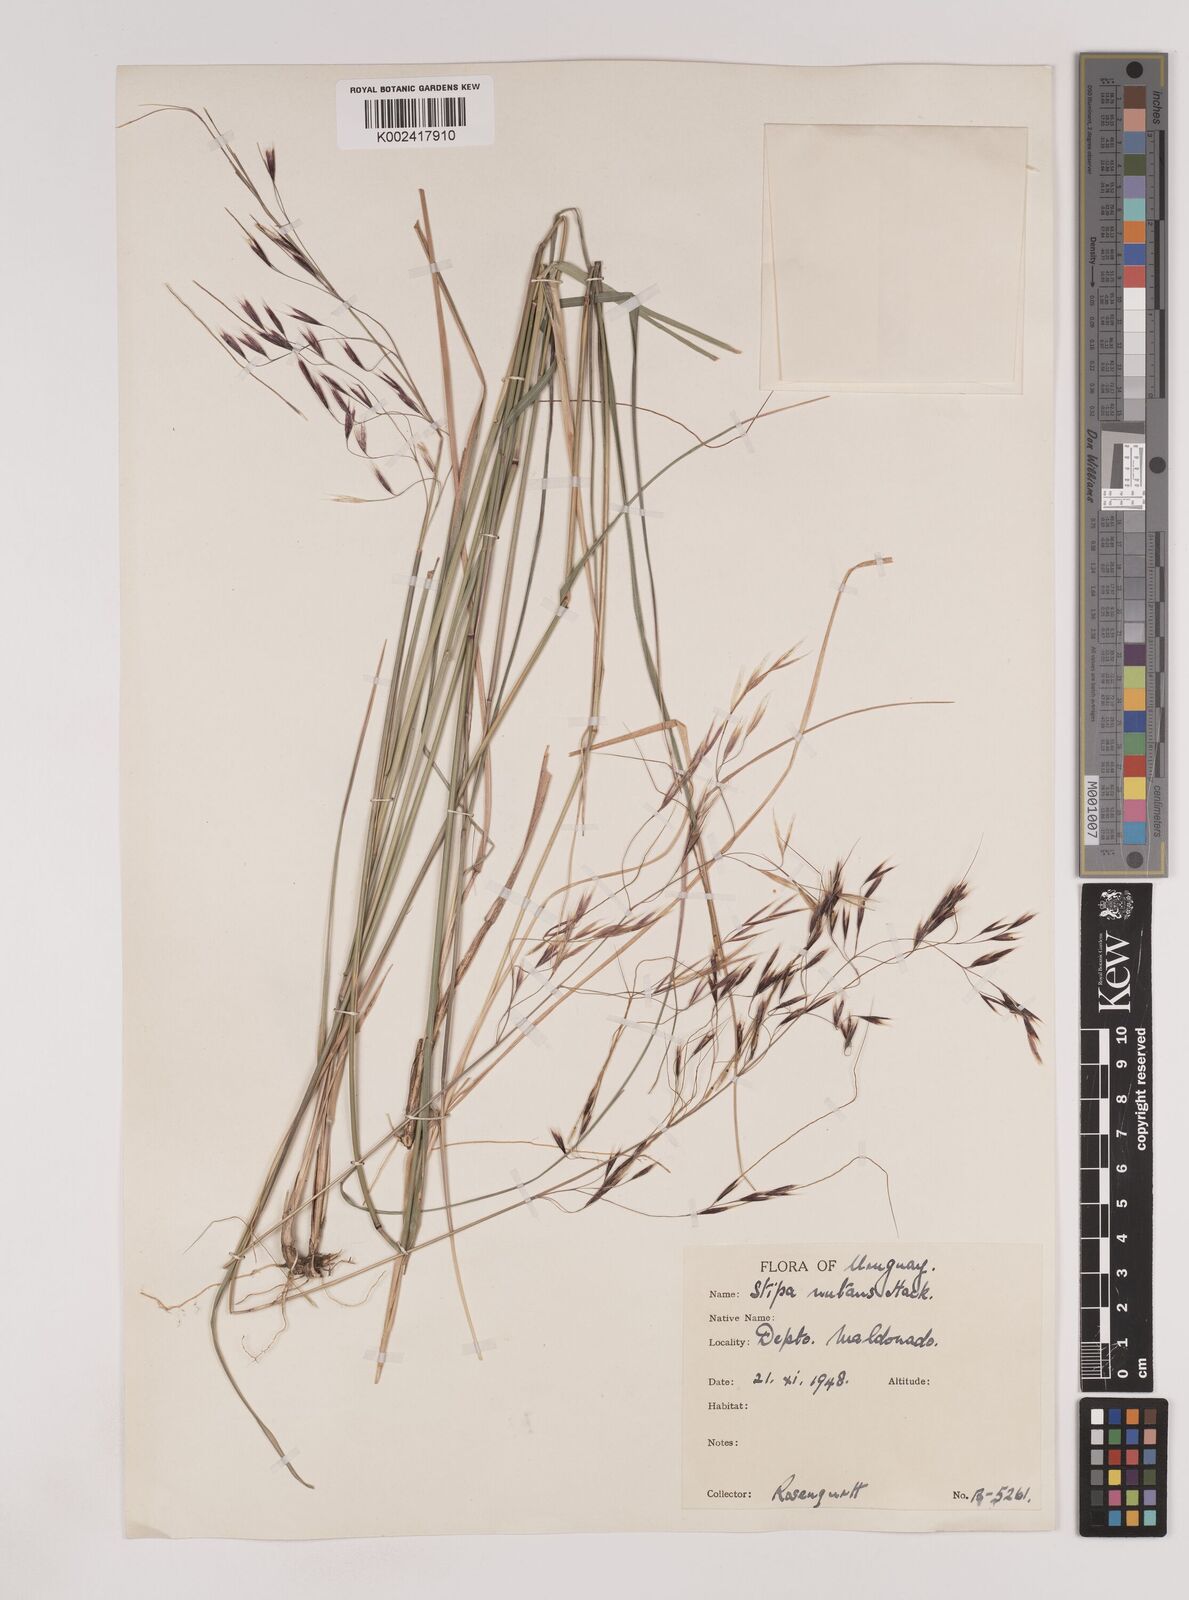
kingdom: Plantae
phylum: Tracheophyta
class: Liliopsida
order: Poales
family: Poaceae
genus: Nassella
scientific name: Nassella nutans
